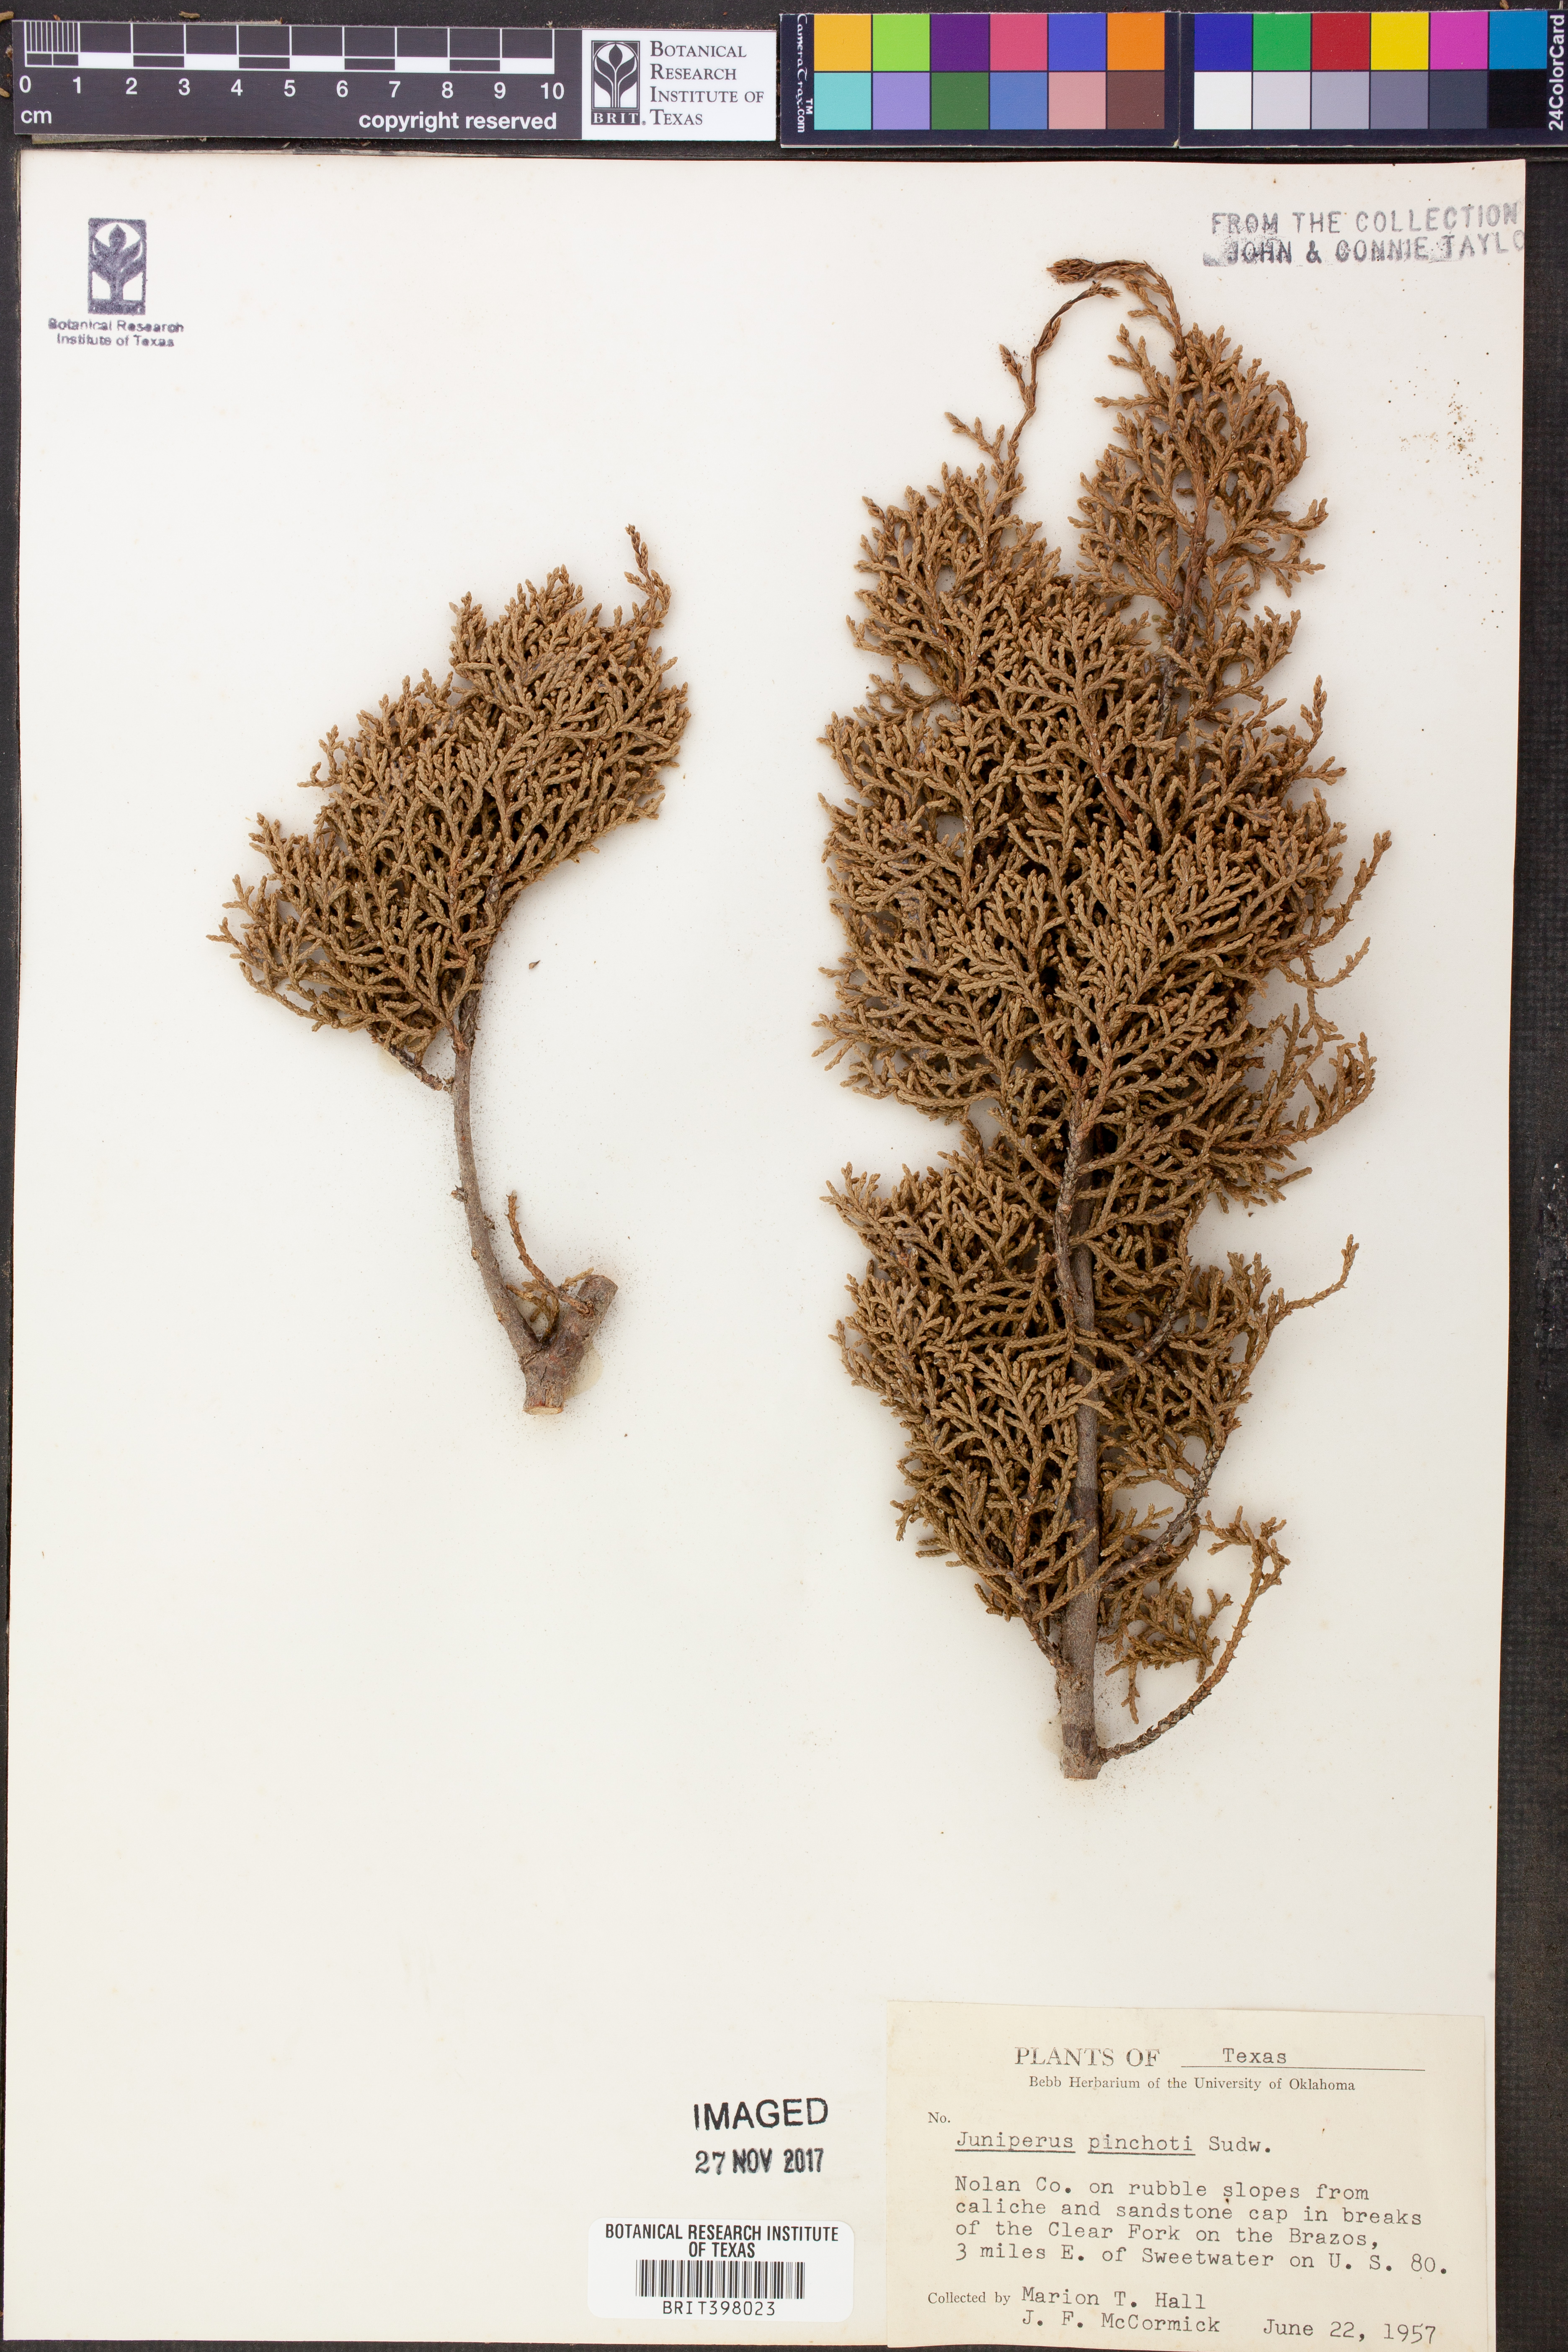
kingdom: Plantae
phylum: Tracheophyta
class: Pinopsida
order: Pinales
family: Cupressaceae
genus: Juniperus
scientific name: Juniperus pinchotii
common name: Pinchot juniper
